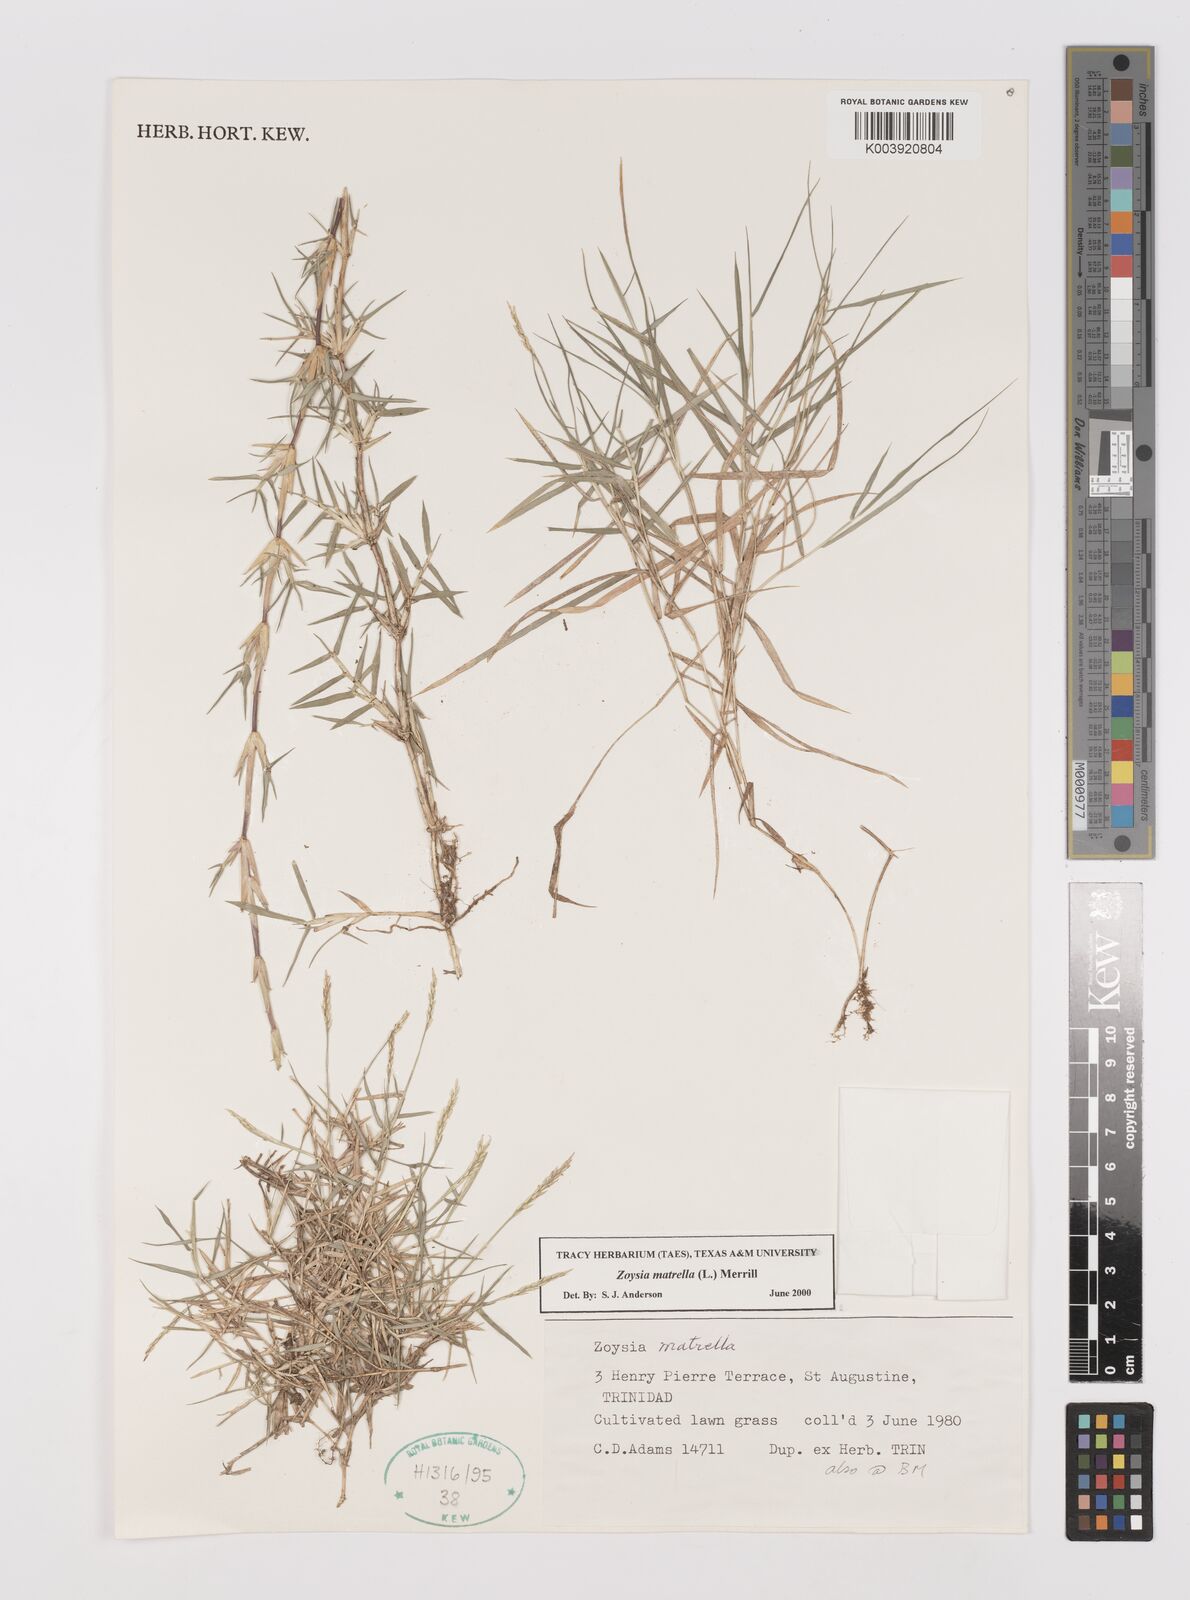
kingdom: Plantae
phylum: Tracheophyta
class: Liliopsida
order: Poales
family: Poaceae
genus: Zoysia
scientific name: Zoysia matrella
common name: Manila grass
